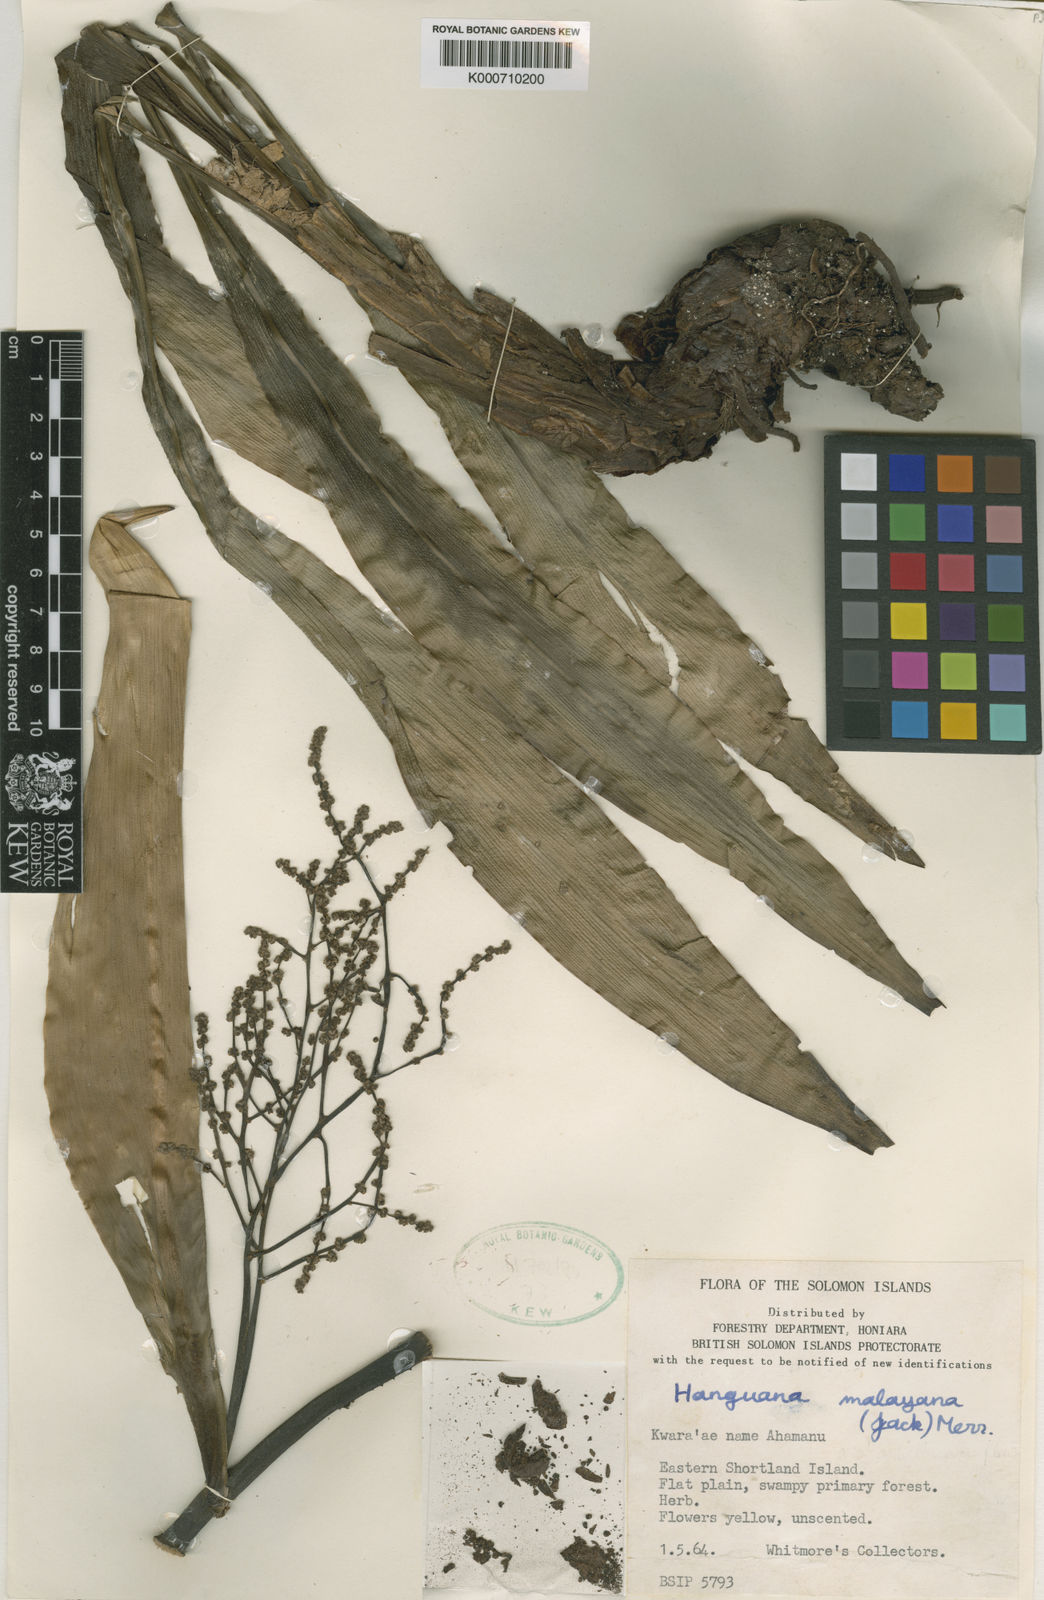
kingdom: Plantae
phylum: Tracheophyta
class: Liliopsida
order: Commelinales
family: Hanguanaceae
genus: Hanguana
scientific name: Hanguana malayana
